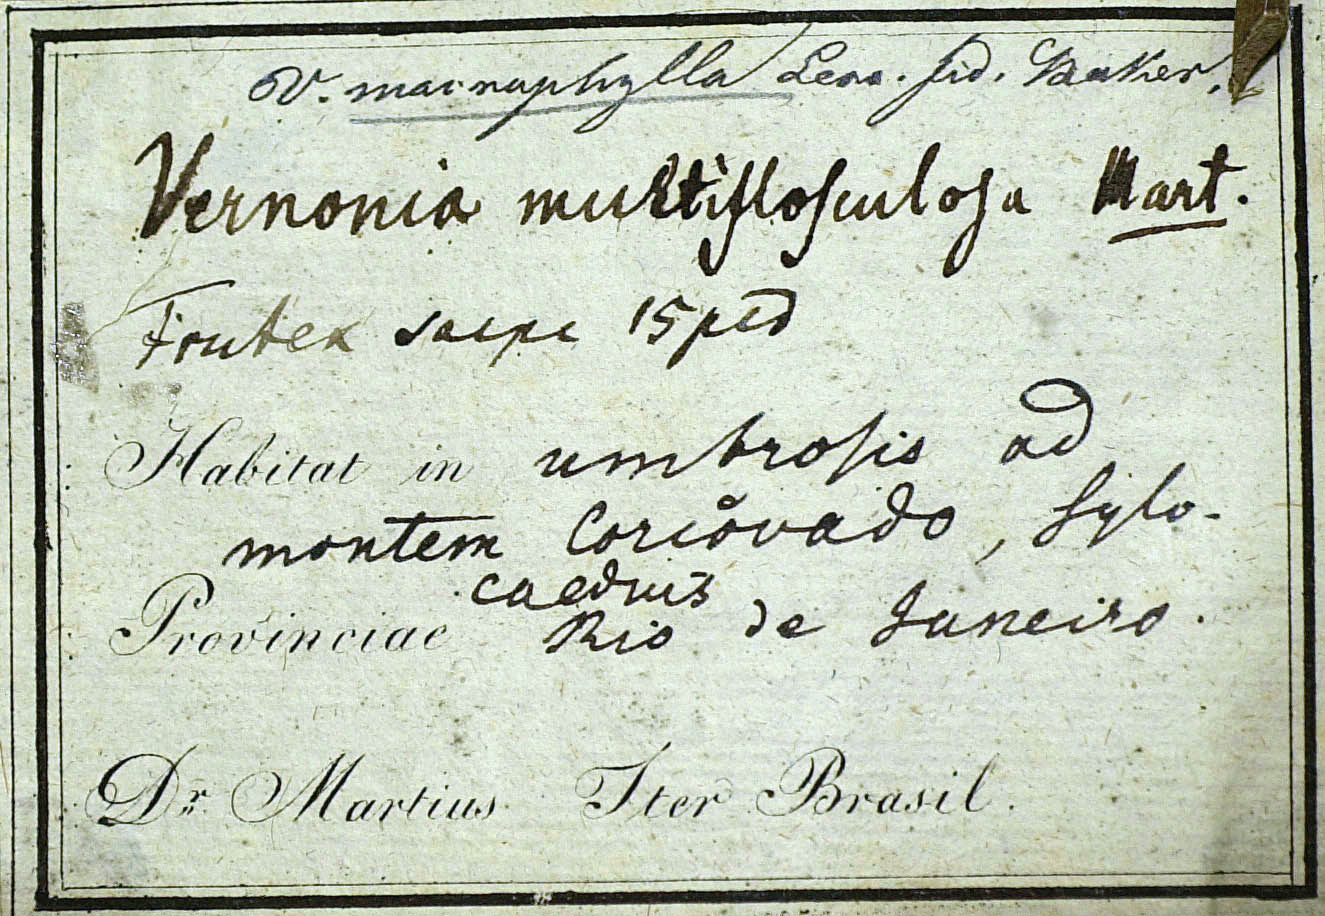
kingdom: Plantae
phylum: Tracheophyta
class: Magnoliopsida
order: Asterales
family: Asteraceae
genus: Lessingianthus
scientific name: Lessingianthus macrophyllus
